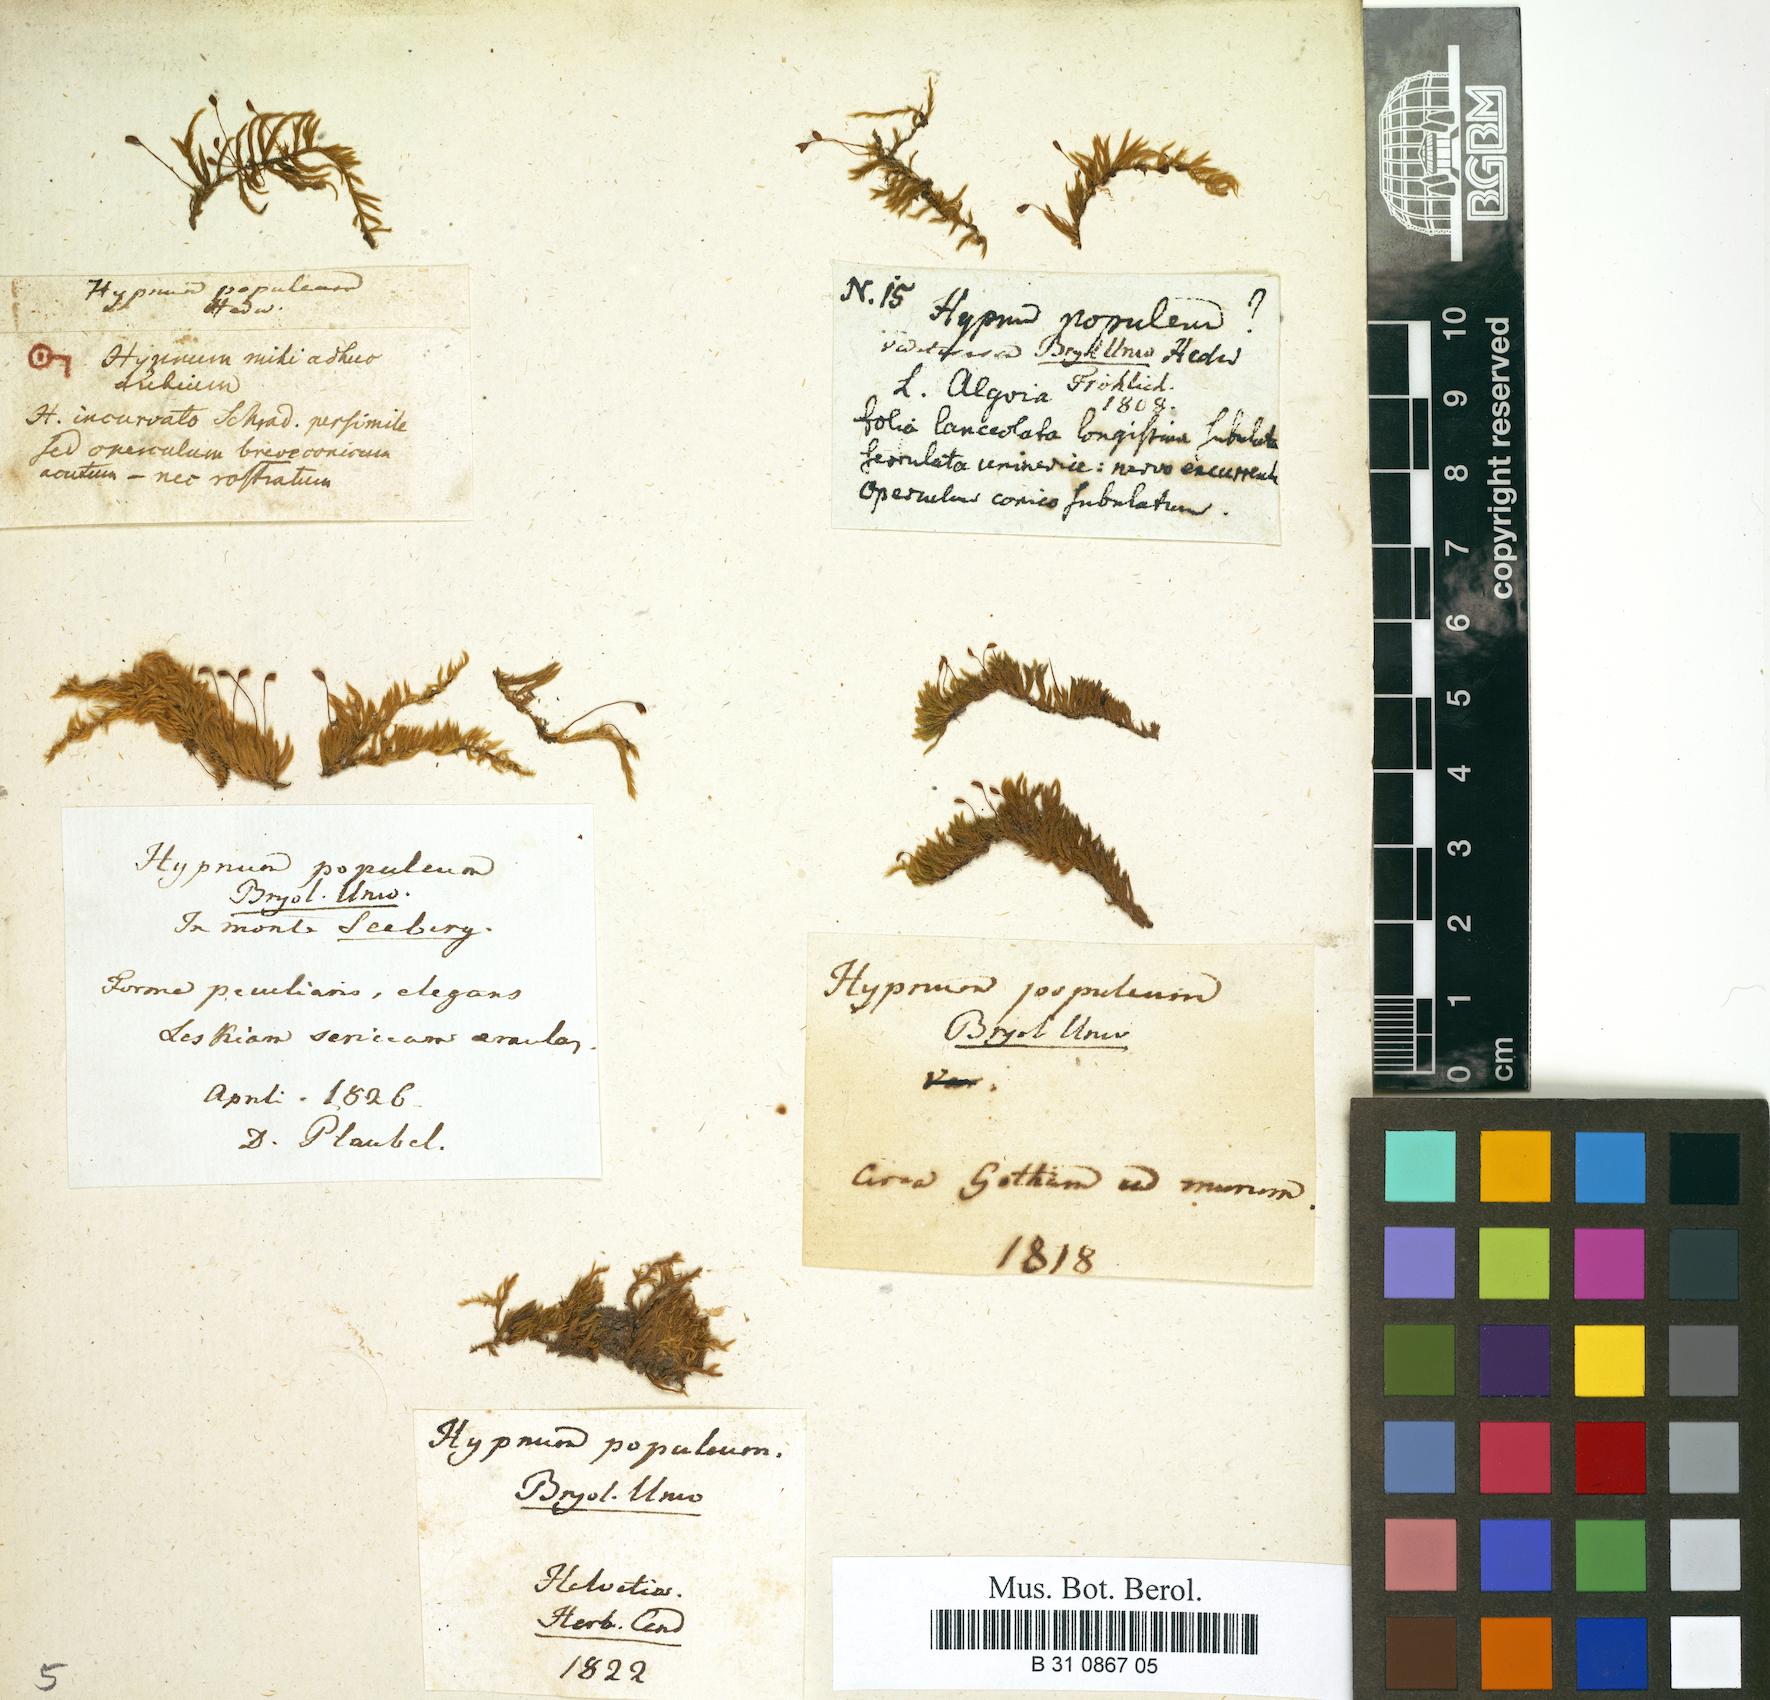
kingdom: Plantae
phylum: Bryophyta
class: Bryopsida
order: Hypnales
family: Brachytheciaceae
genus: Sciuro-hypnum
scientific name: Sciuro-hypnum populeum
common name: Matted feather-moss
